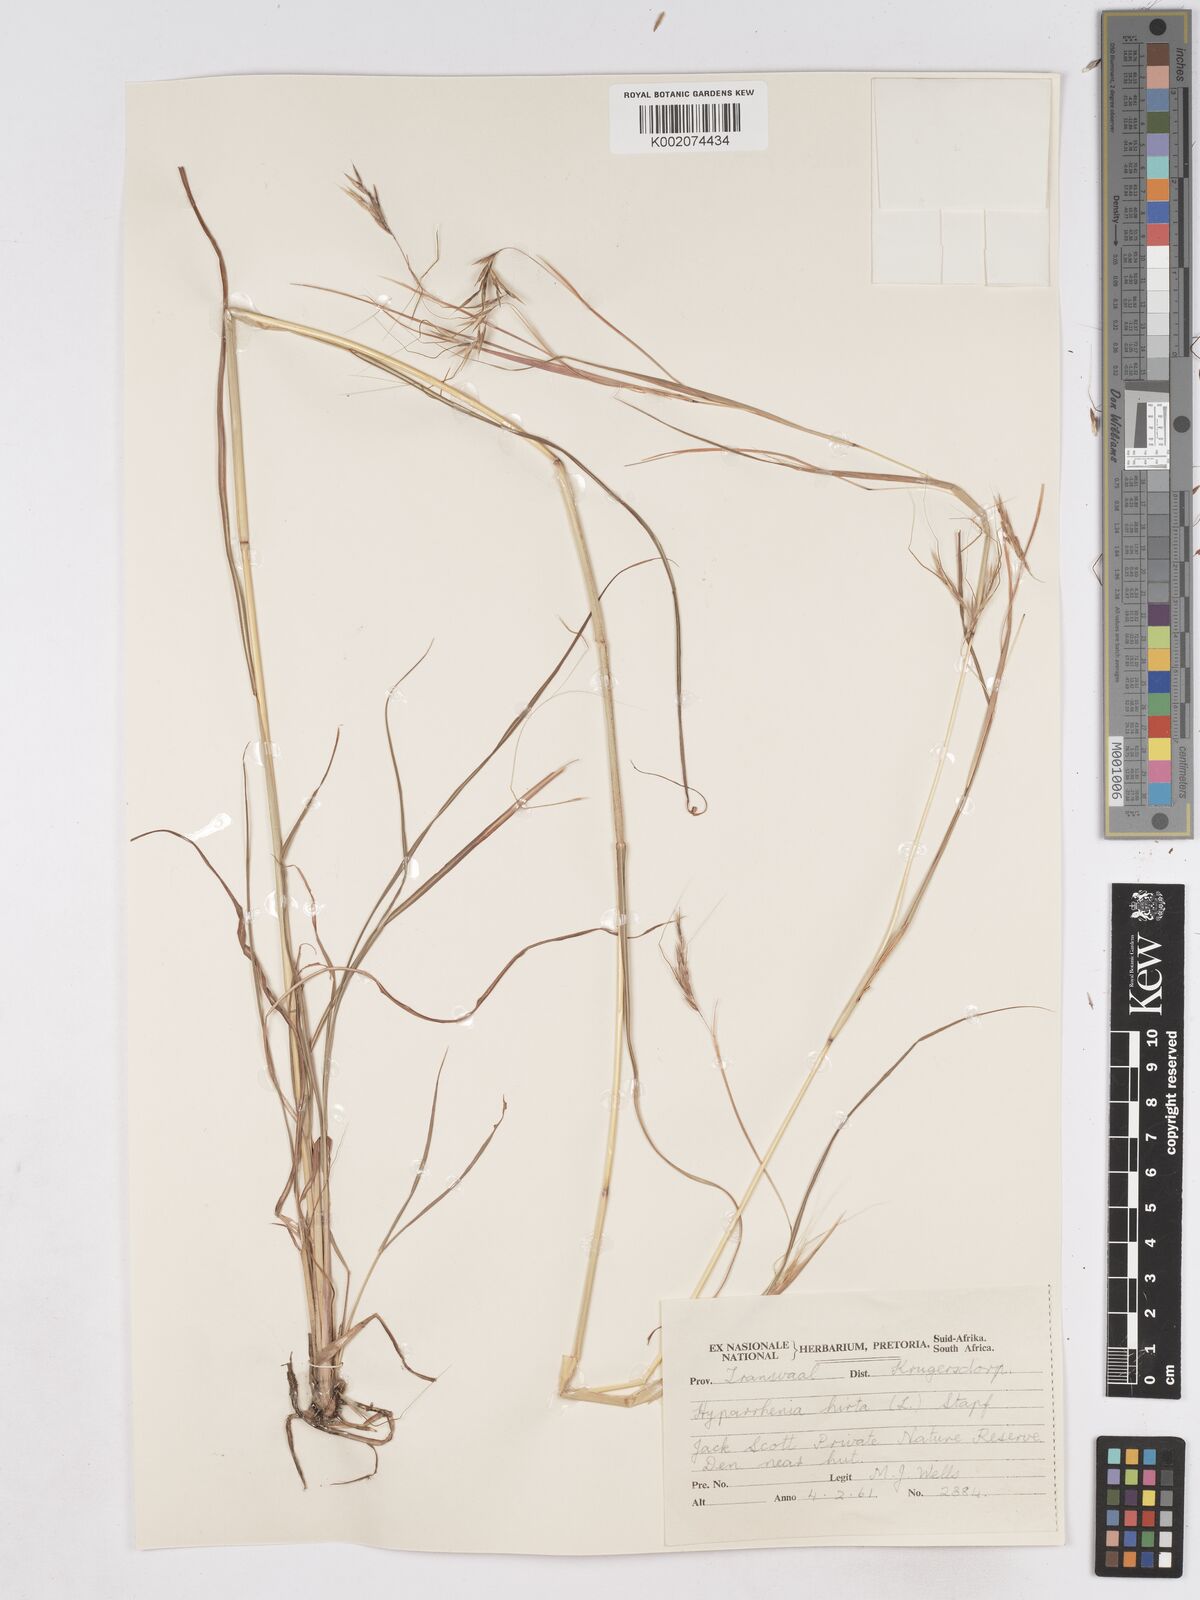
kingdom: Plantae
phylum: Tracheophyta
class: Liliopsida
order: Poales
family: Poaceae
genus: Hyparrhenia
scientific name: Hyparrhenia hirta
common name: Thatching grass
